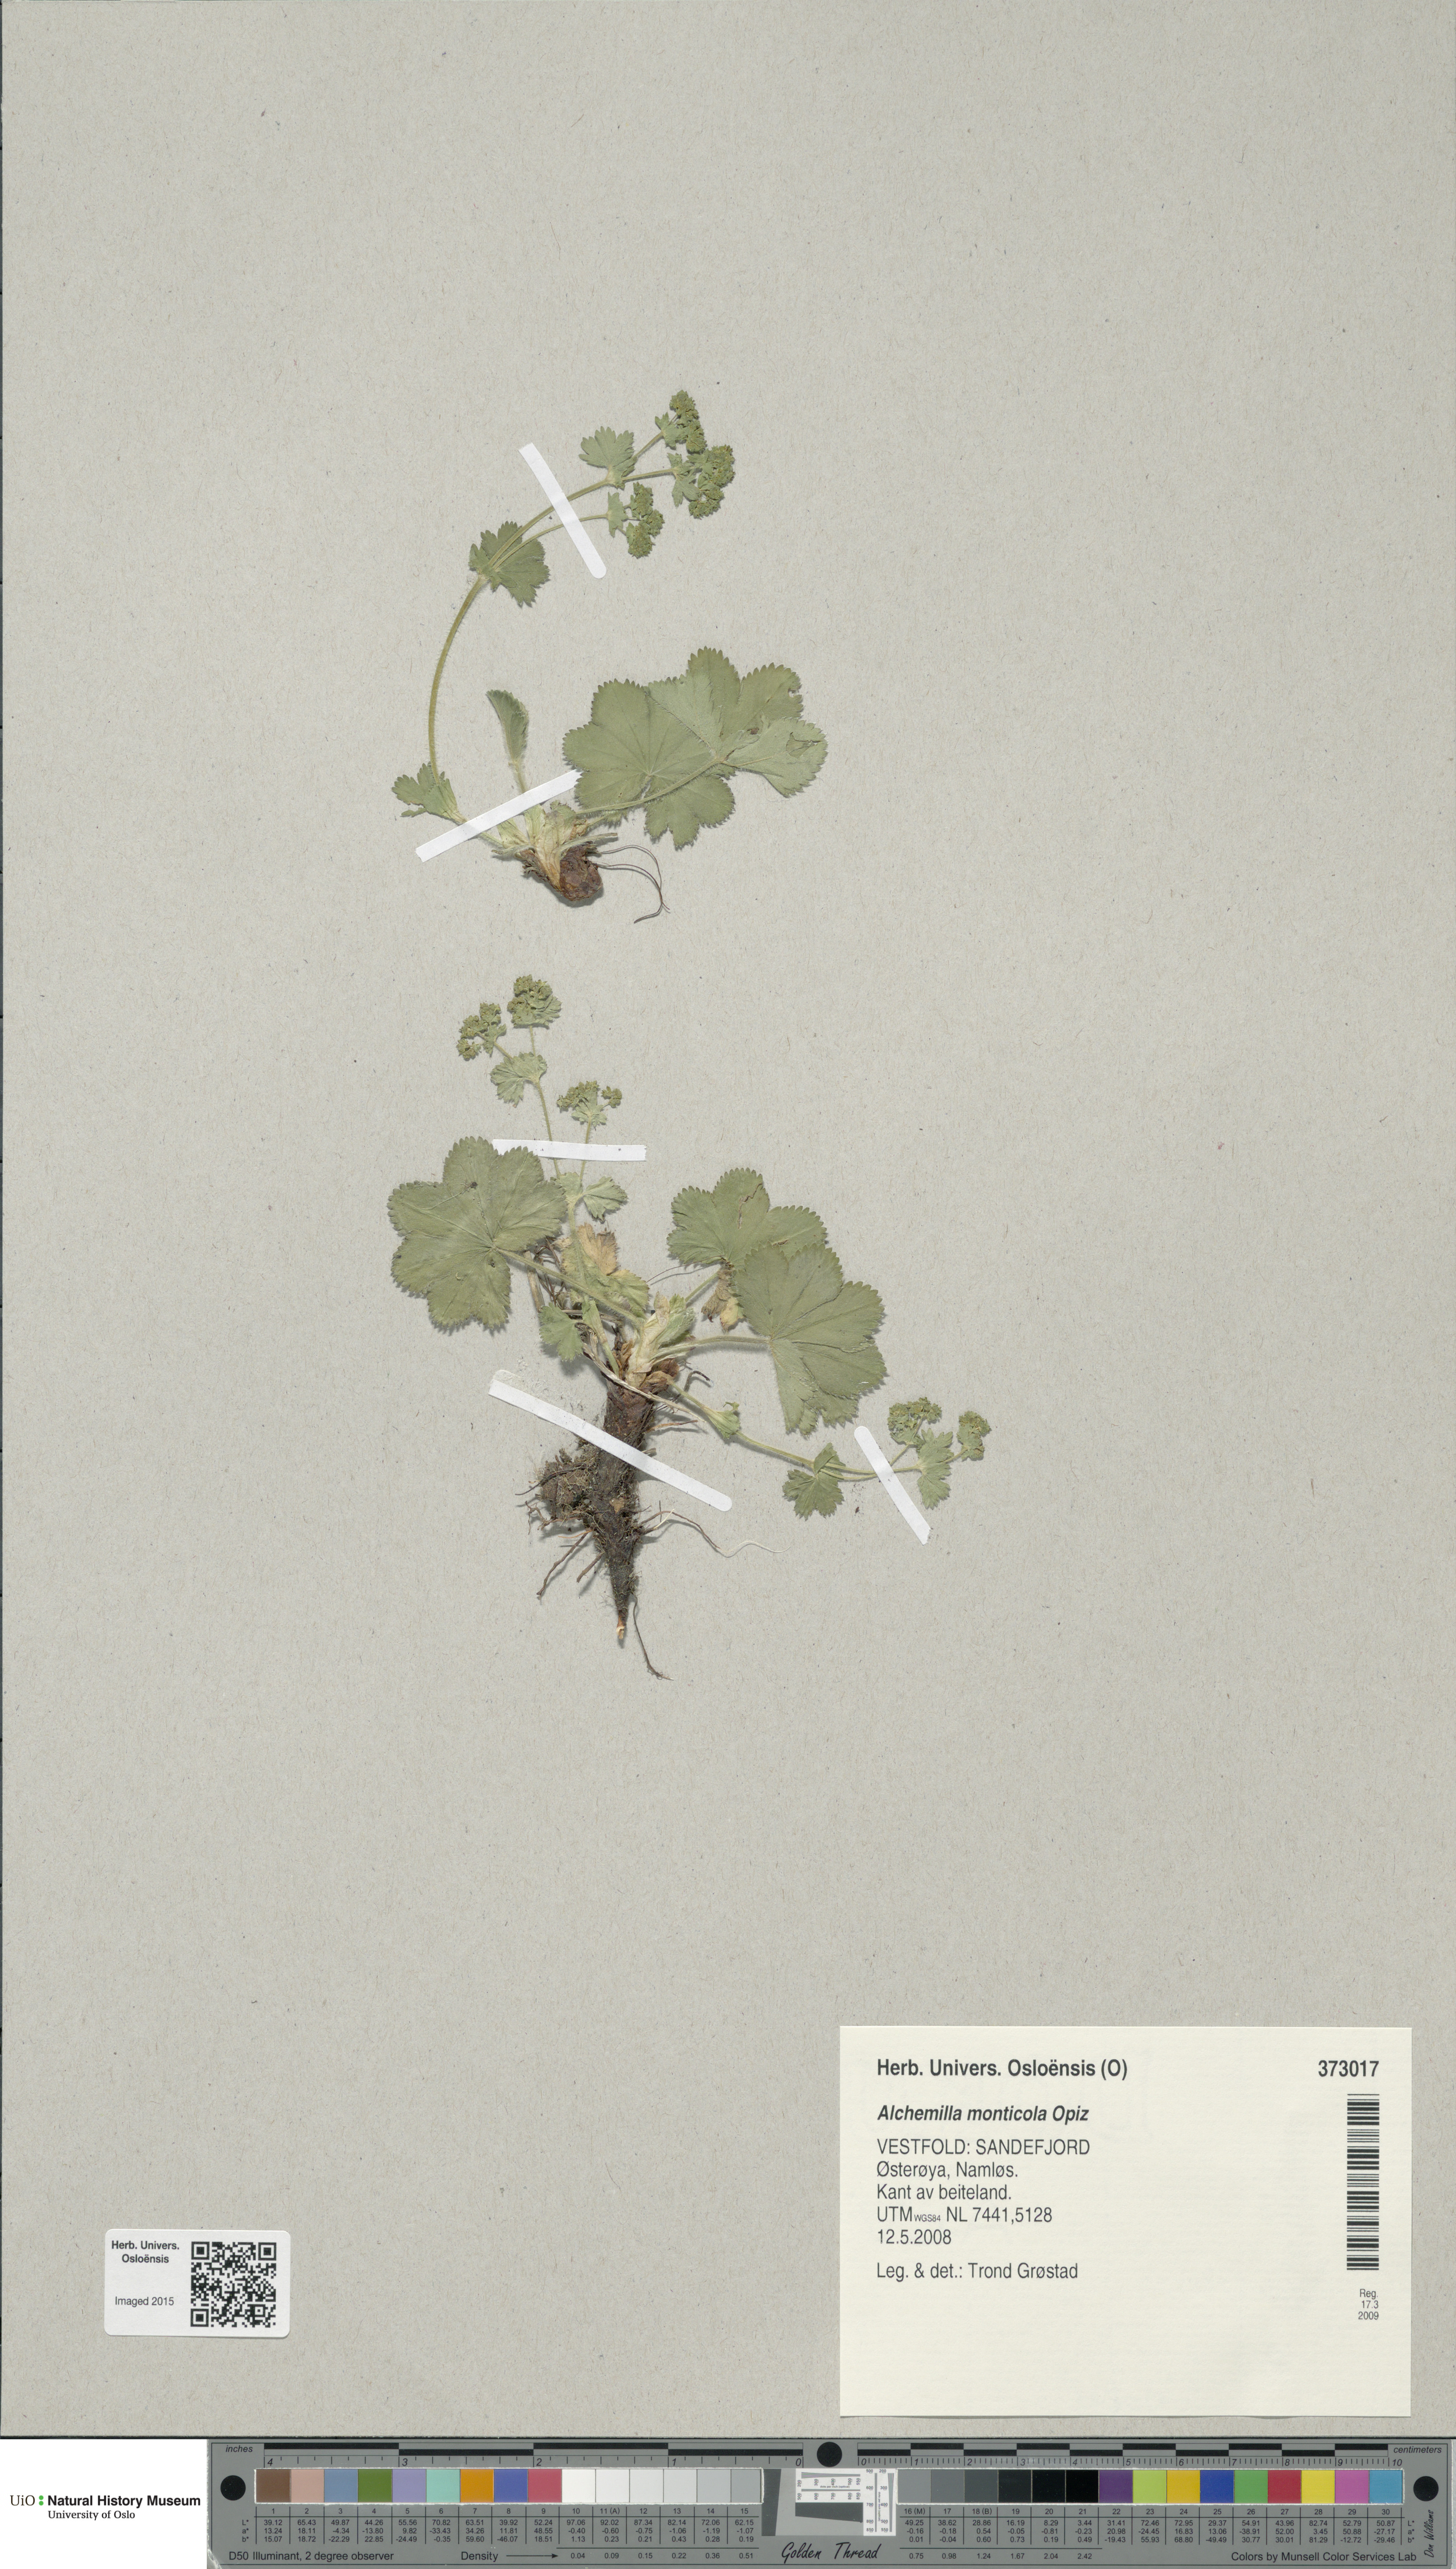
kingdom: Plantae
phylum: Tracheophyta
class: Magnoliopsida
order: Rosales
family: Rosaceae
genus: Alchemilla
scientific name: Alchemilla monticola
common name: Hairy lady's mantle
